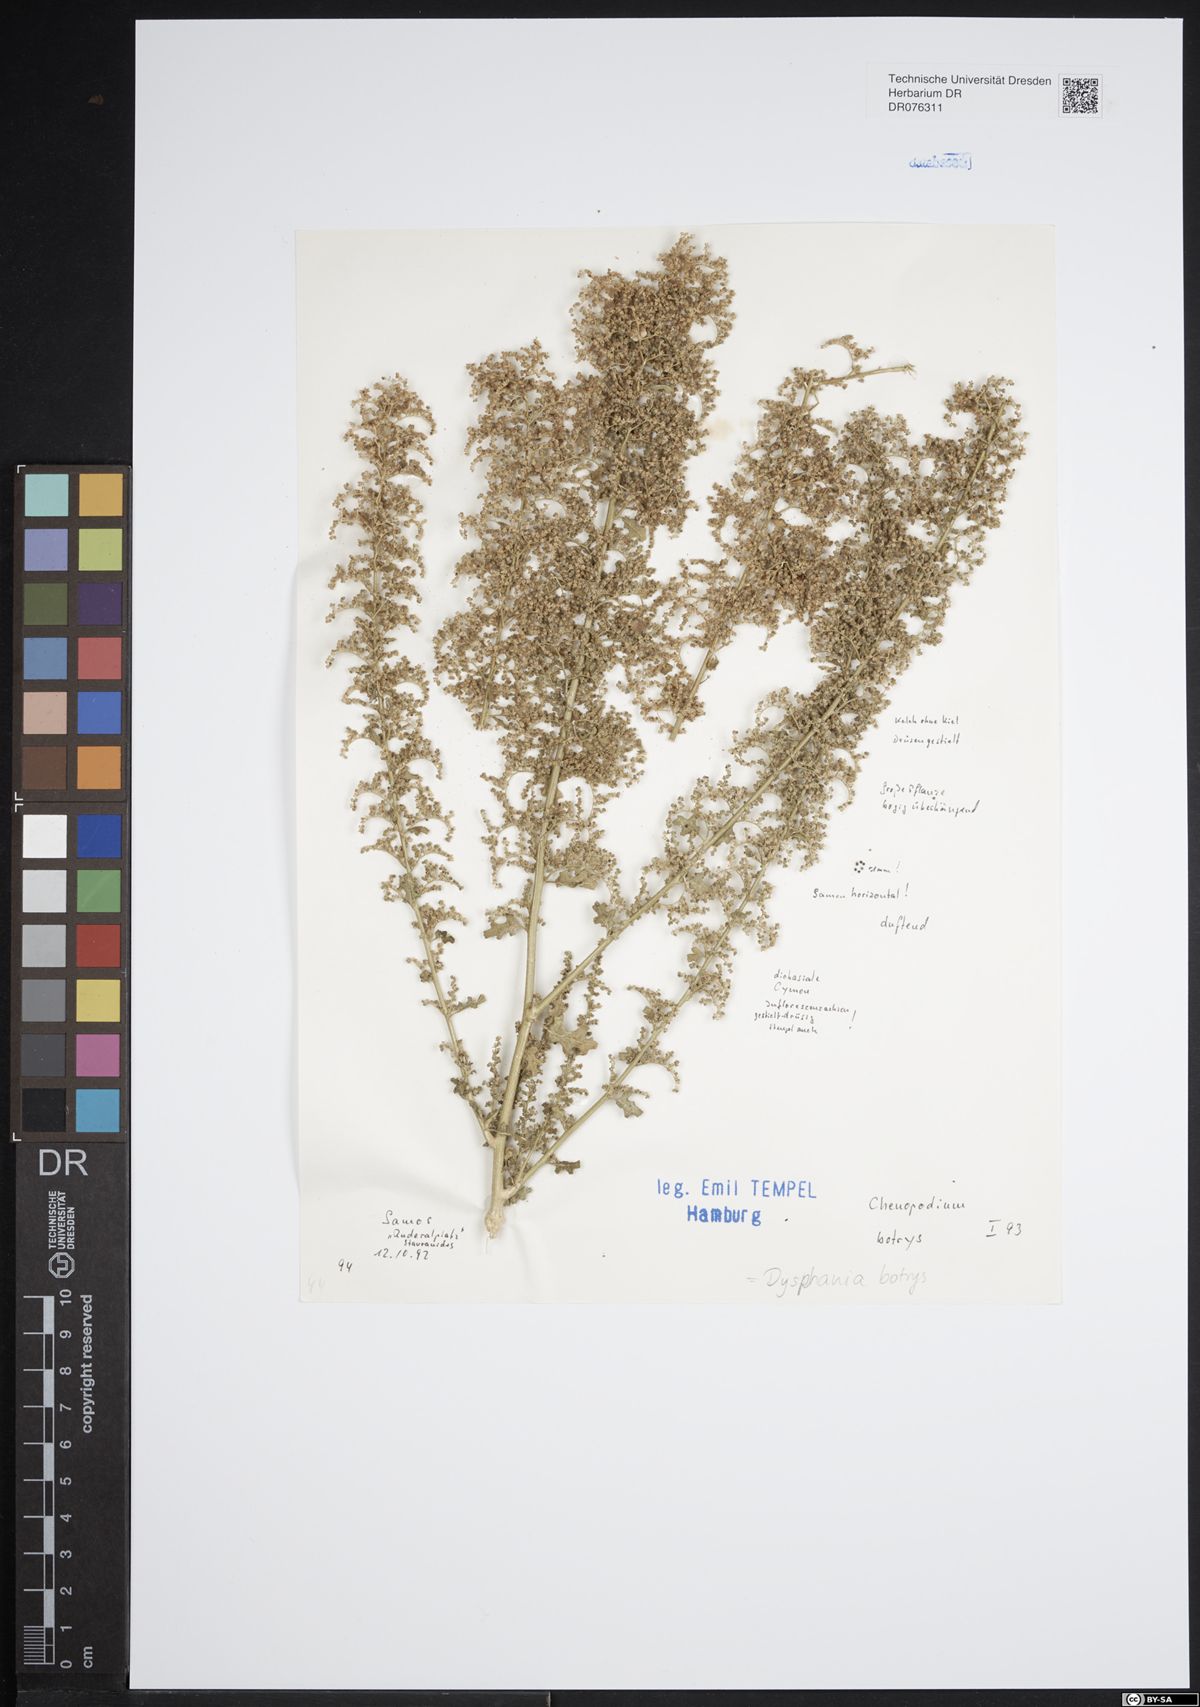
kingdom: Plantae
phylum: Tracheophyta
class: Magnoliopsida
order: Caryophyllales
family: Amaranthaceae
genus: Dysphania
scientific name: Dysphania botrys
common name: Feather-geranium
